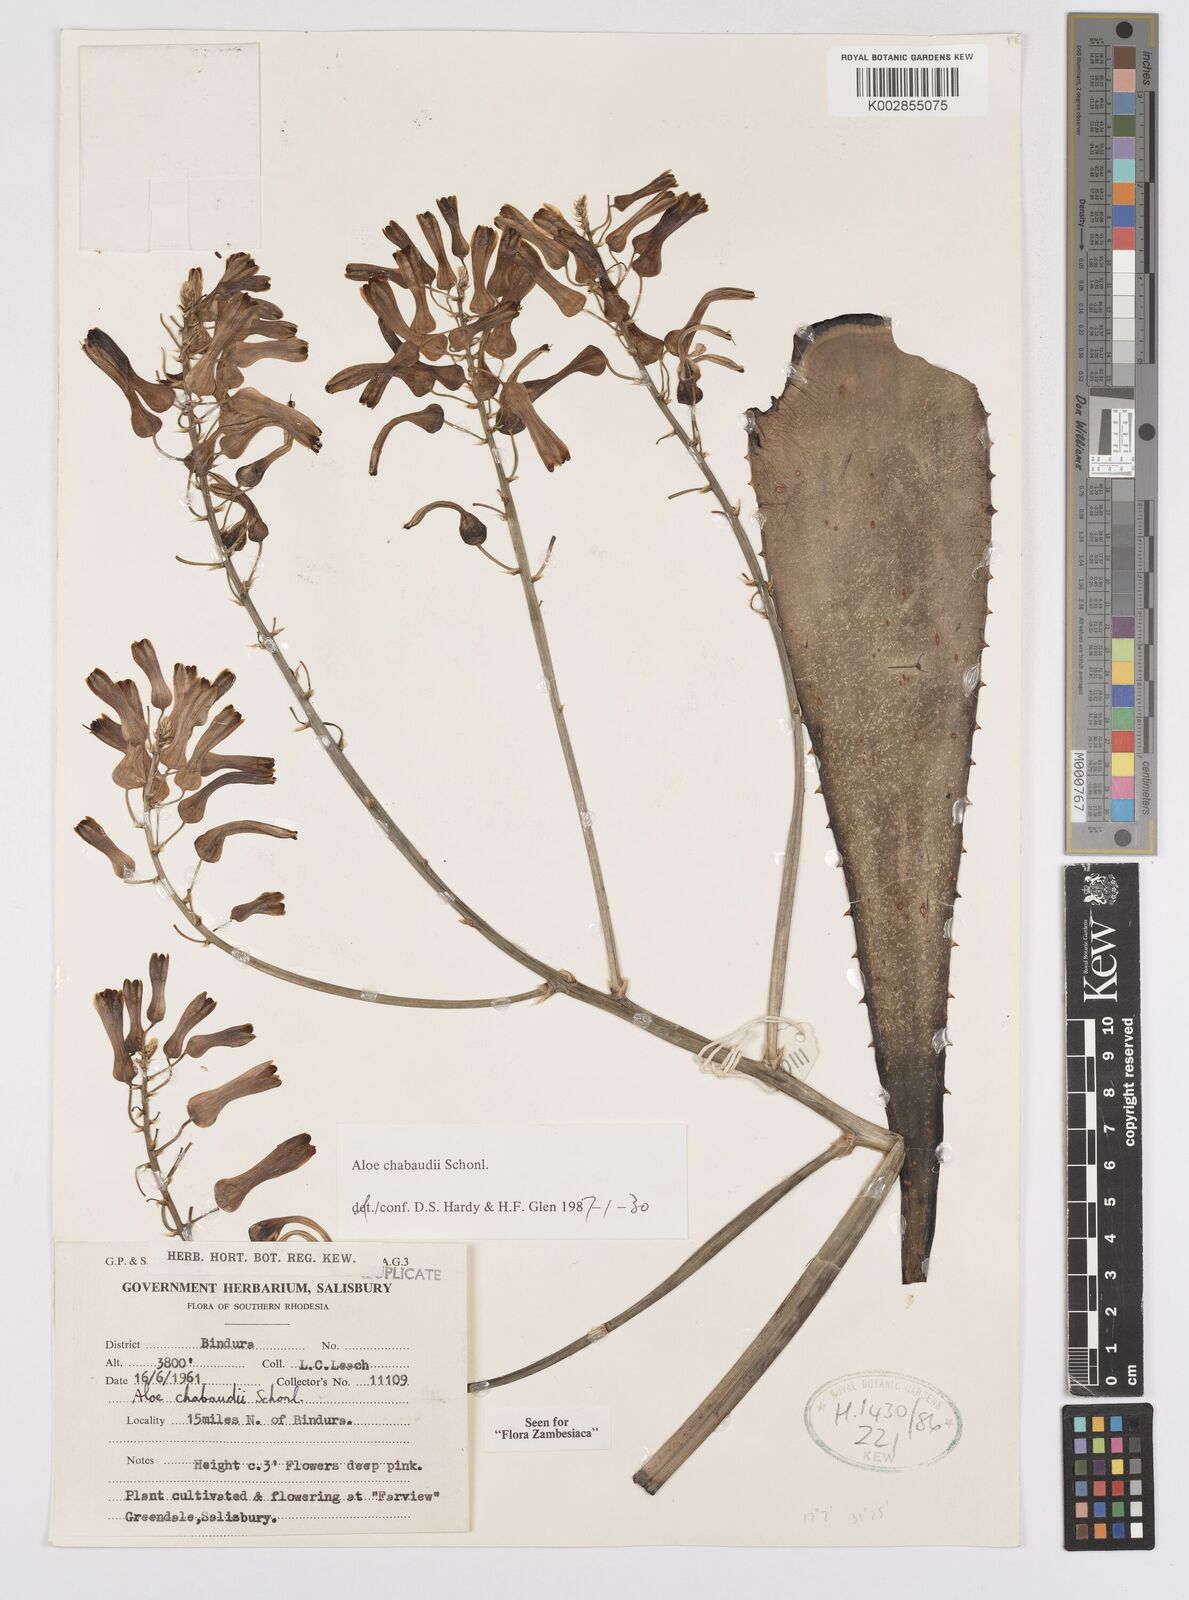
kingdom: Plantae
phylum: Tracheophyta
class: Liliopsida
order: Asparagales
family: Asphodelaceae
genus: Aloe
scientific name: Aloe chabaudii
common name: Chabaud's aloe
